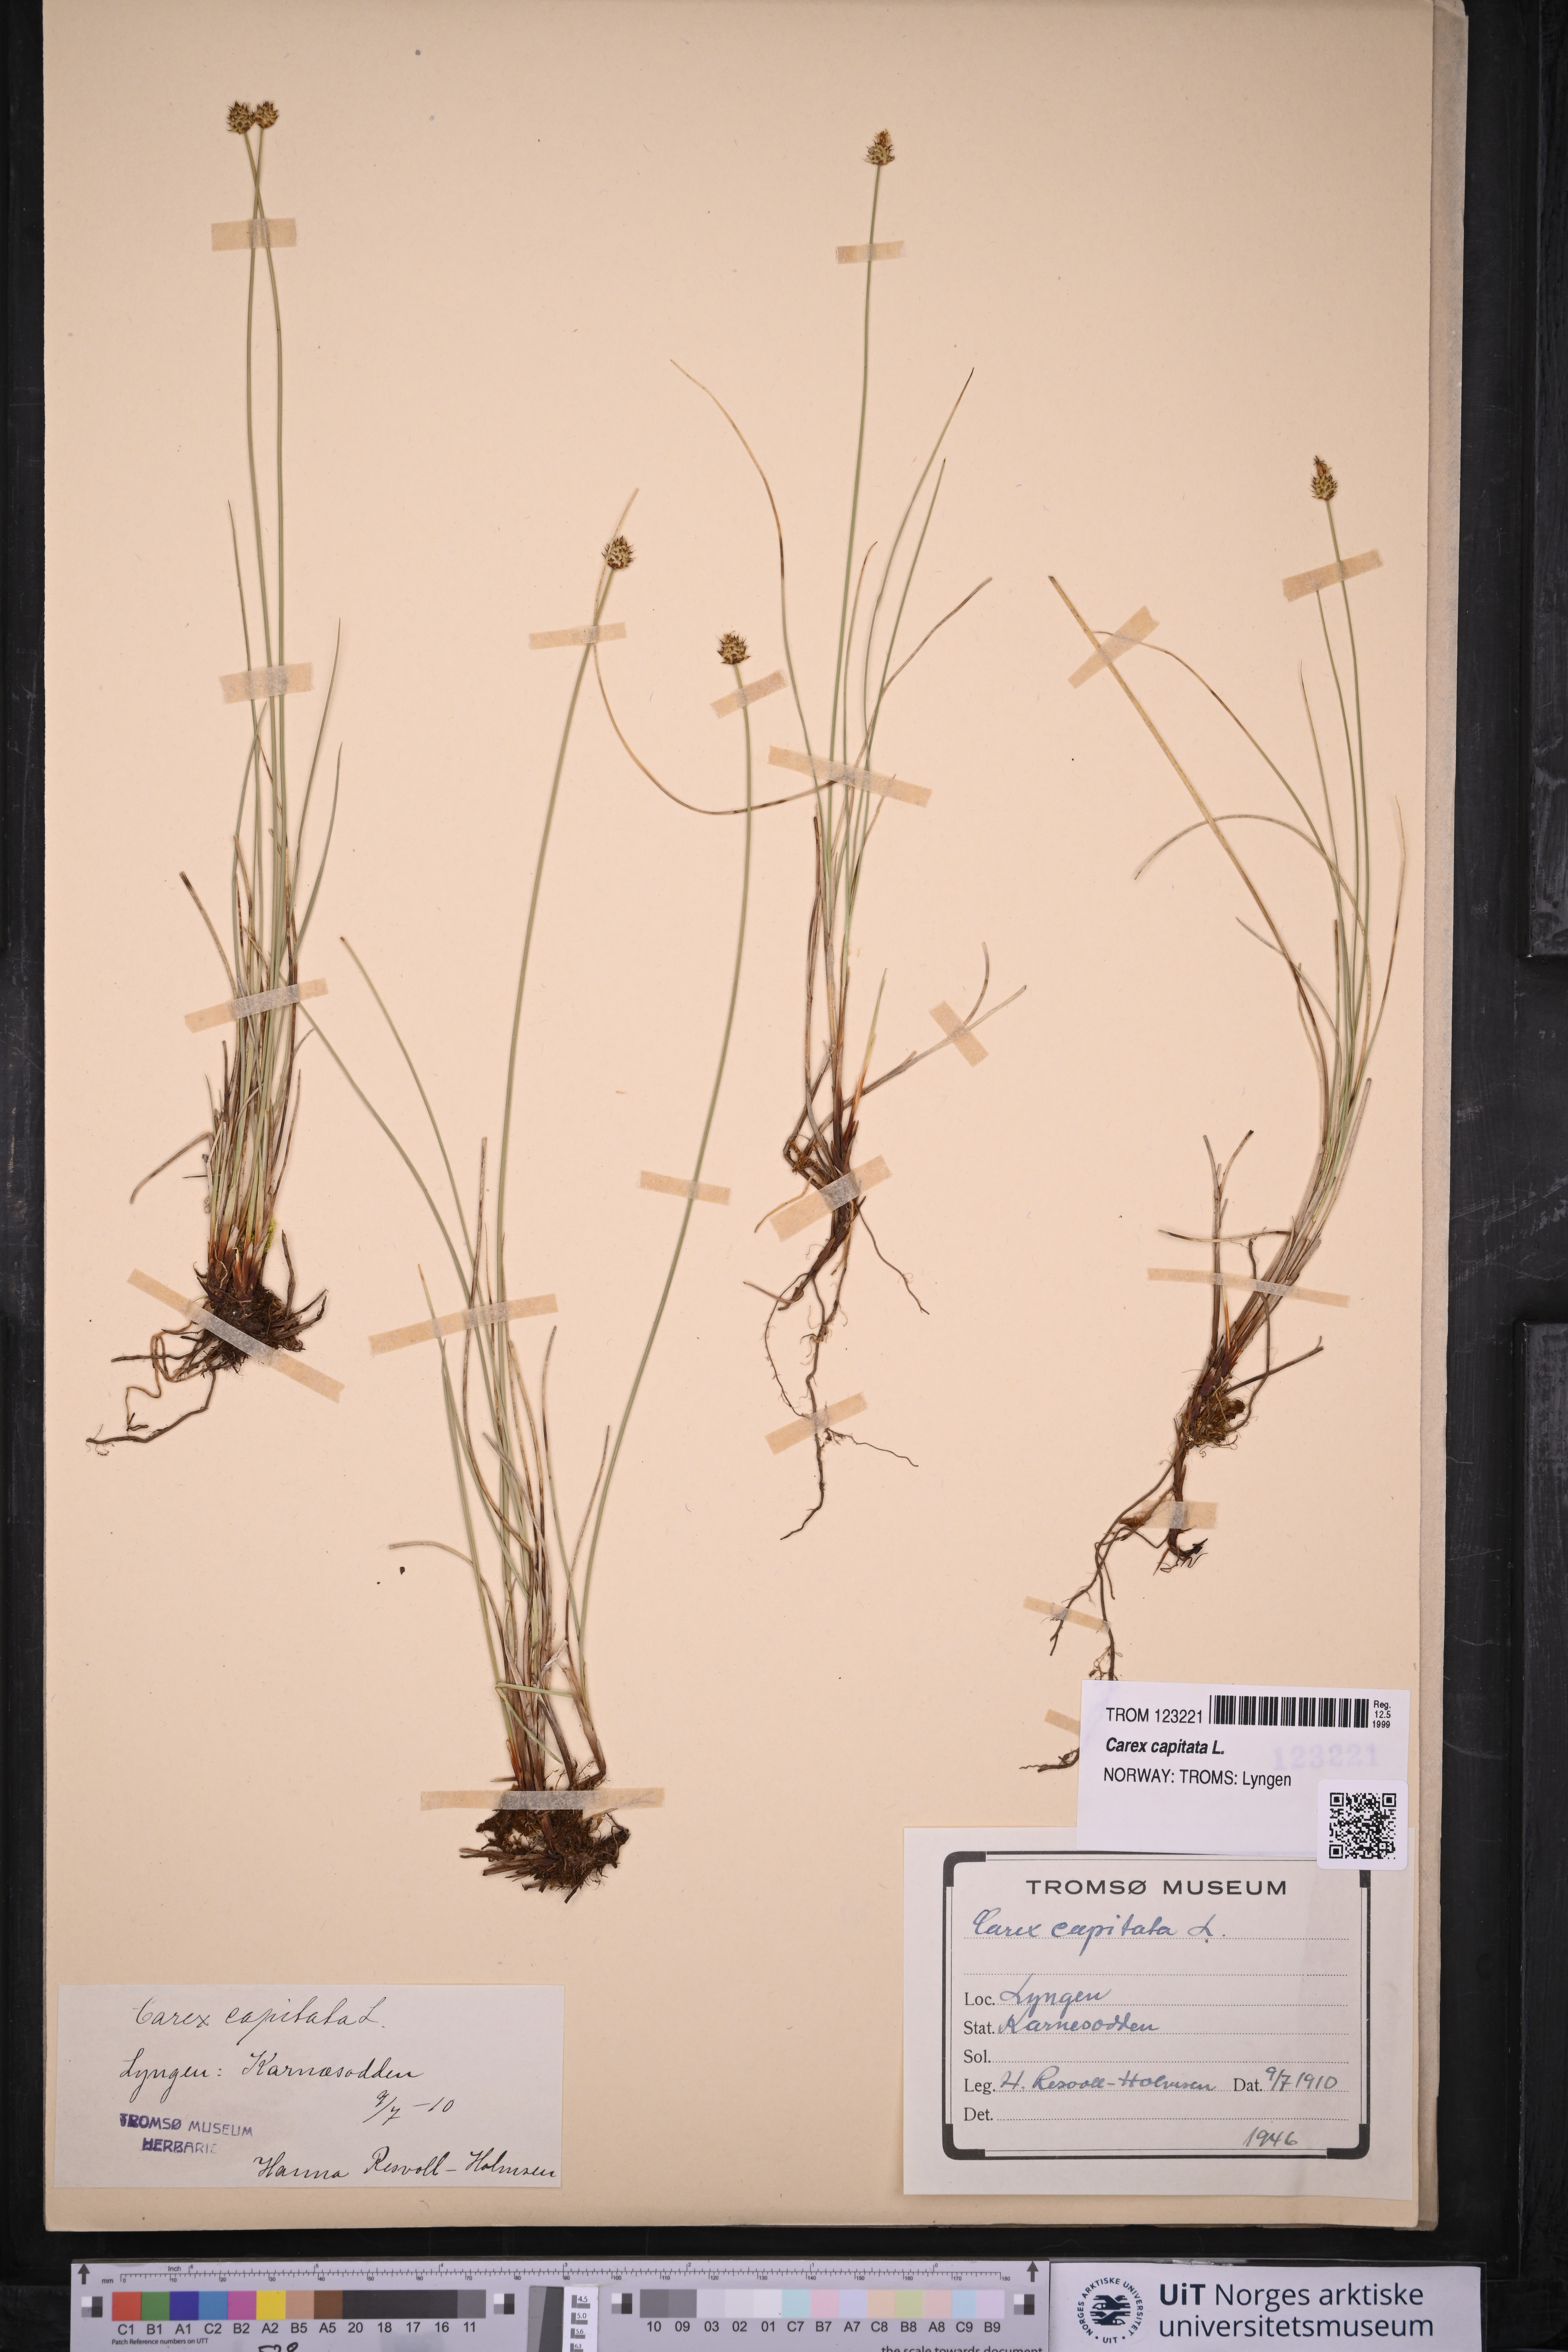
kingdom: Plantae
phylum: Tracheophyta
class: Liliopsida
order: Poales
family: Cyperaceae
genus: Carex
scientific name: Carex capitata
